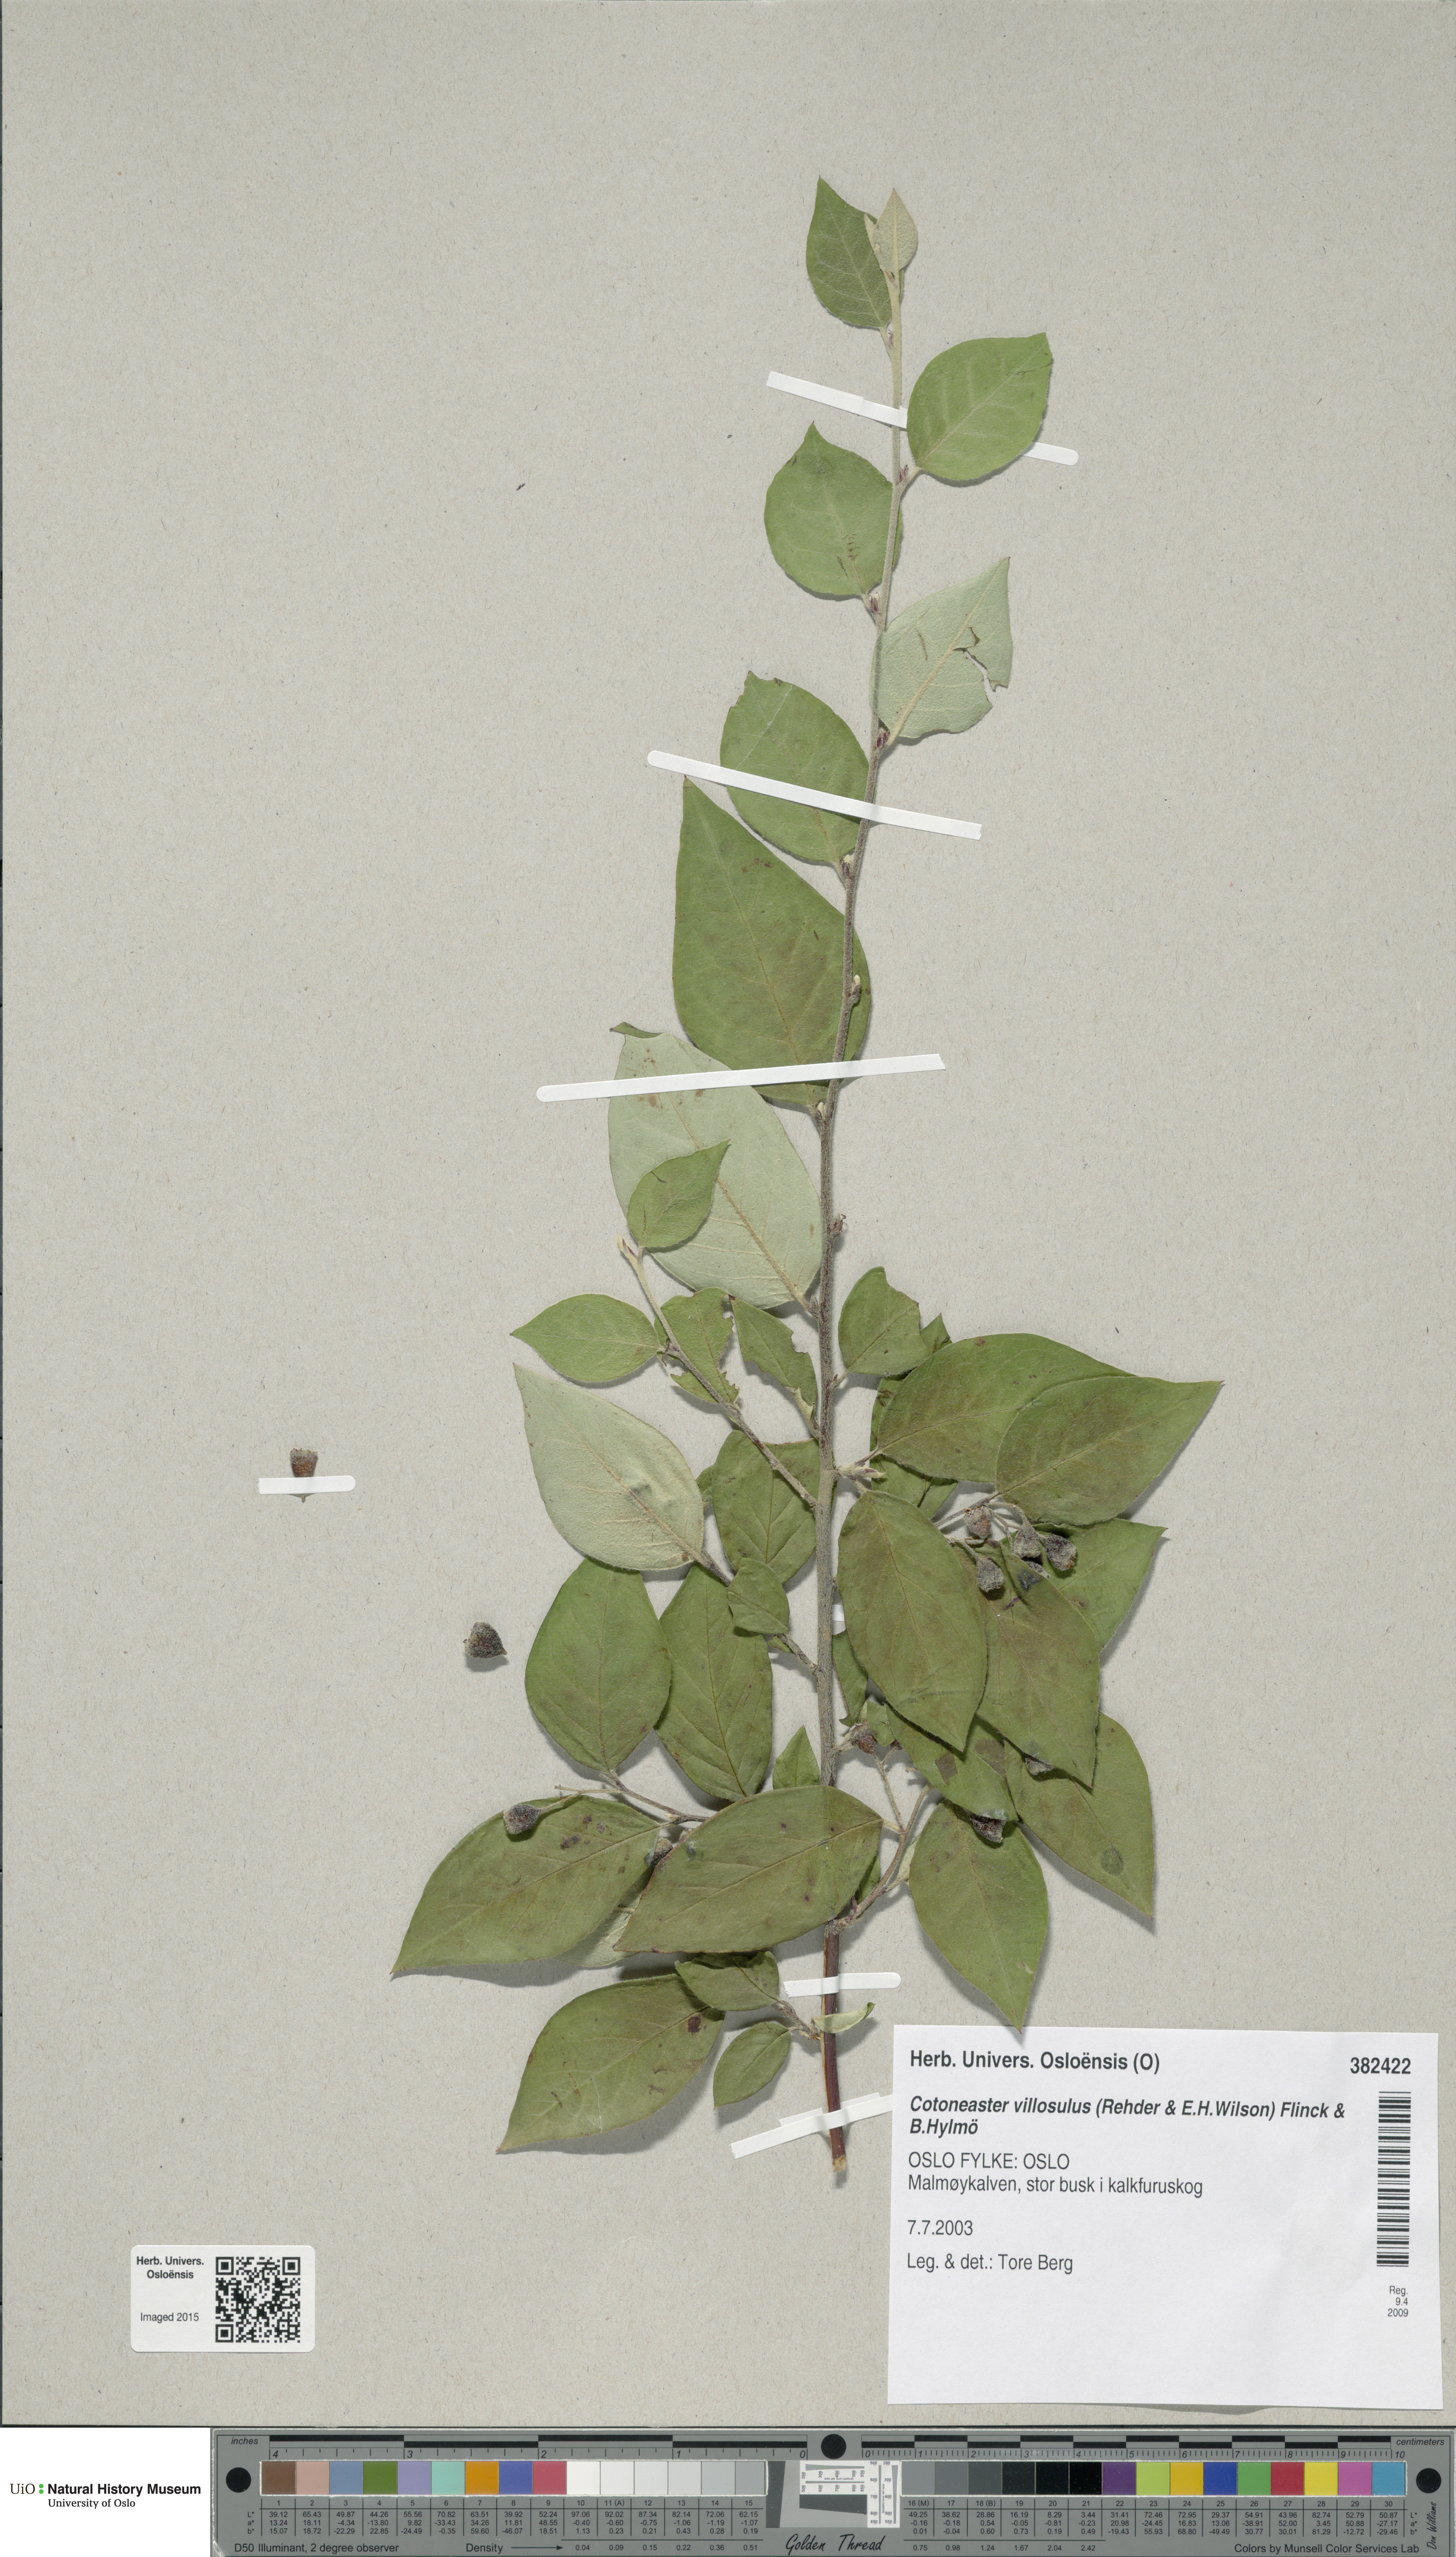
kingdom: Plantae
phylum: Tracheophyta
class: Magnoliopsida
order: Rosales
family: Rosaceae
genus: Cotoneaster
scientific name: Cotoneaster ambiguus
